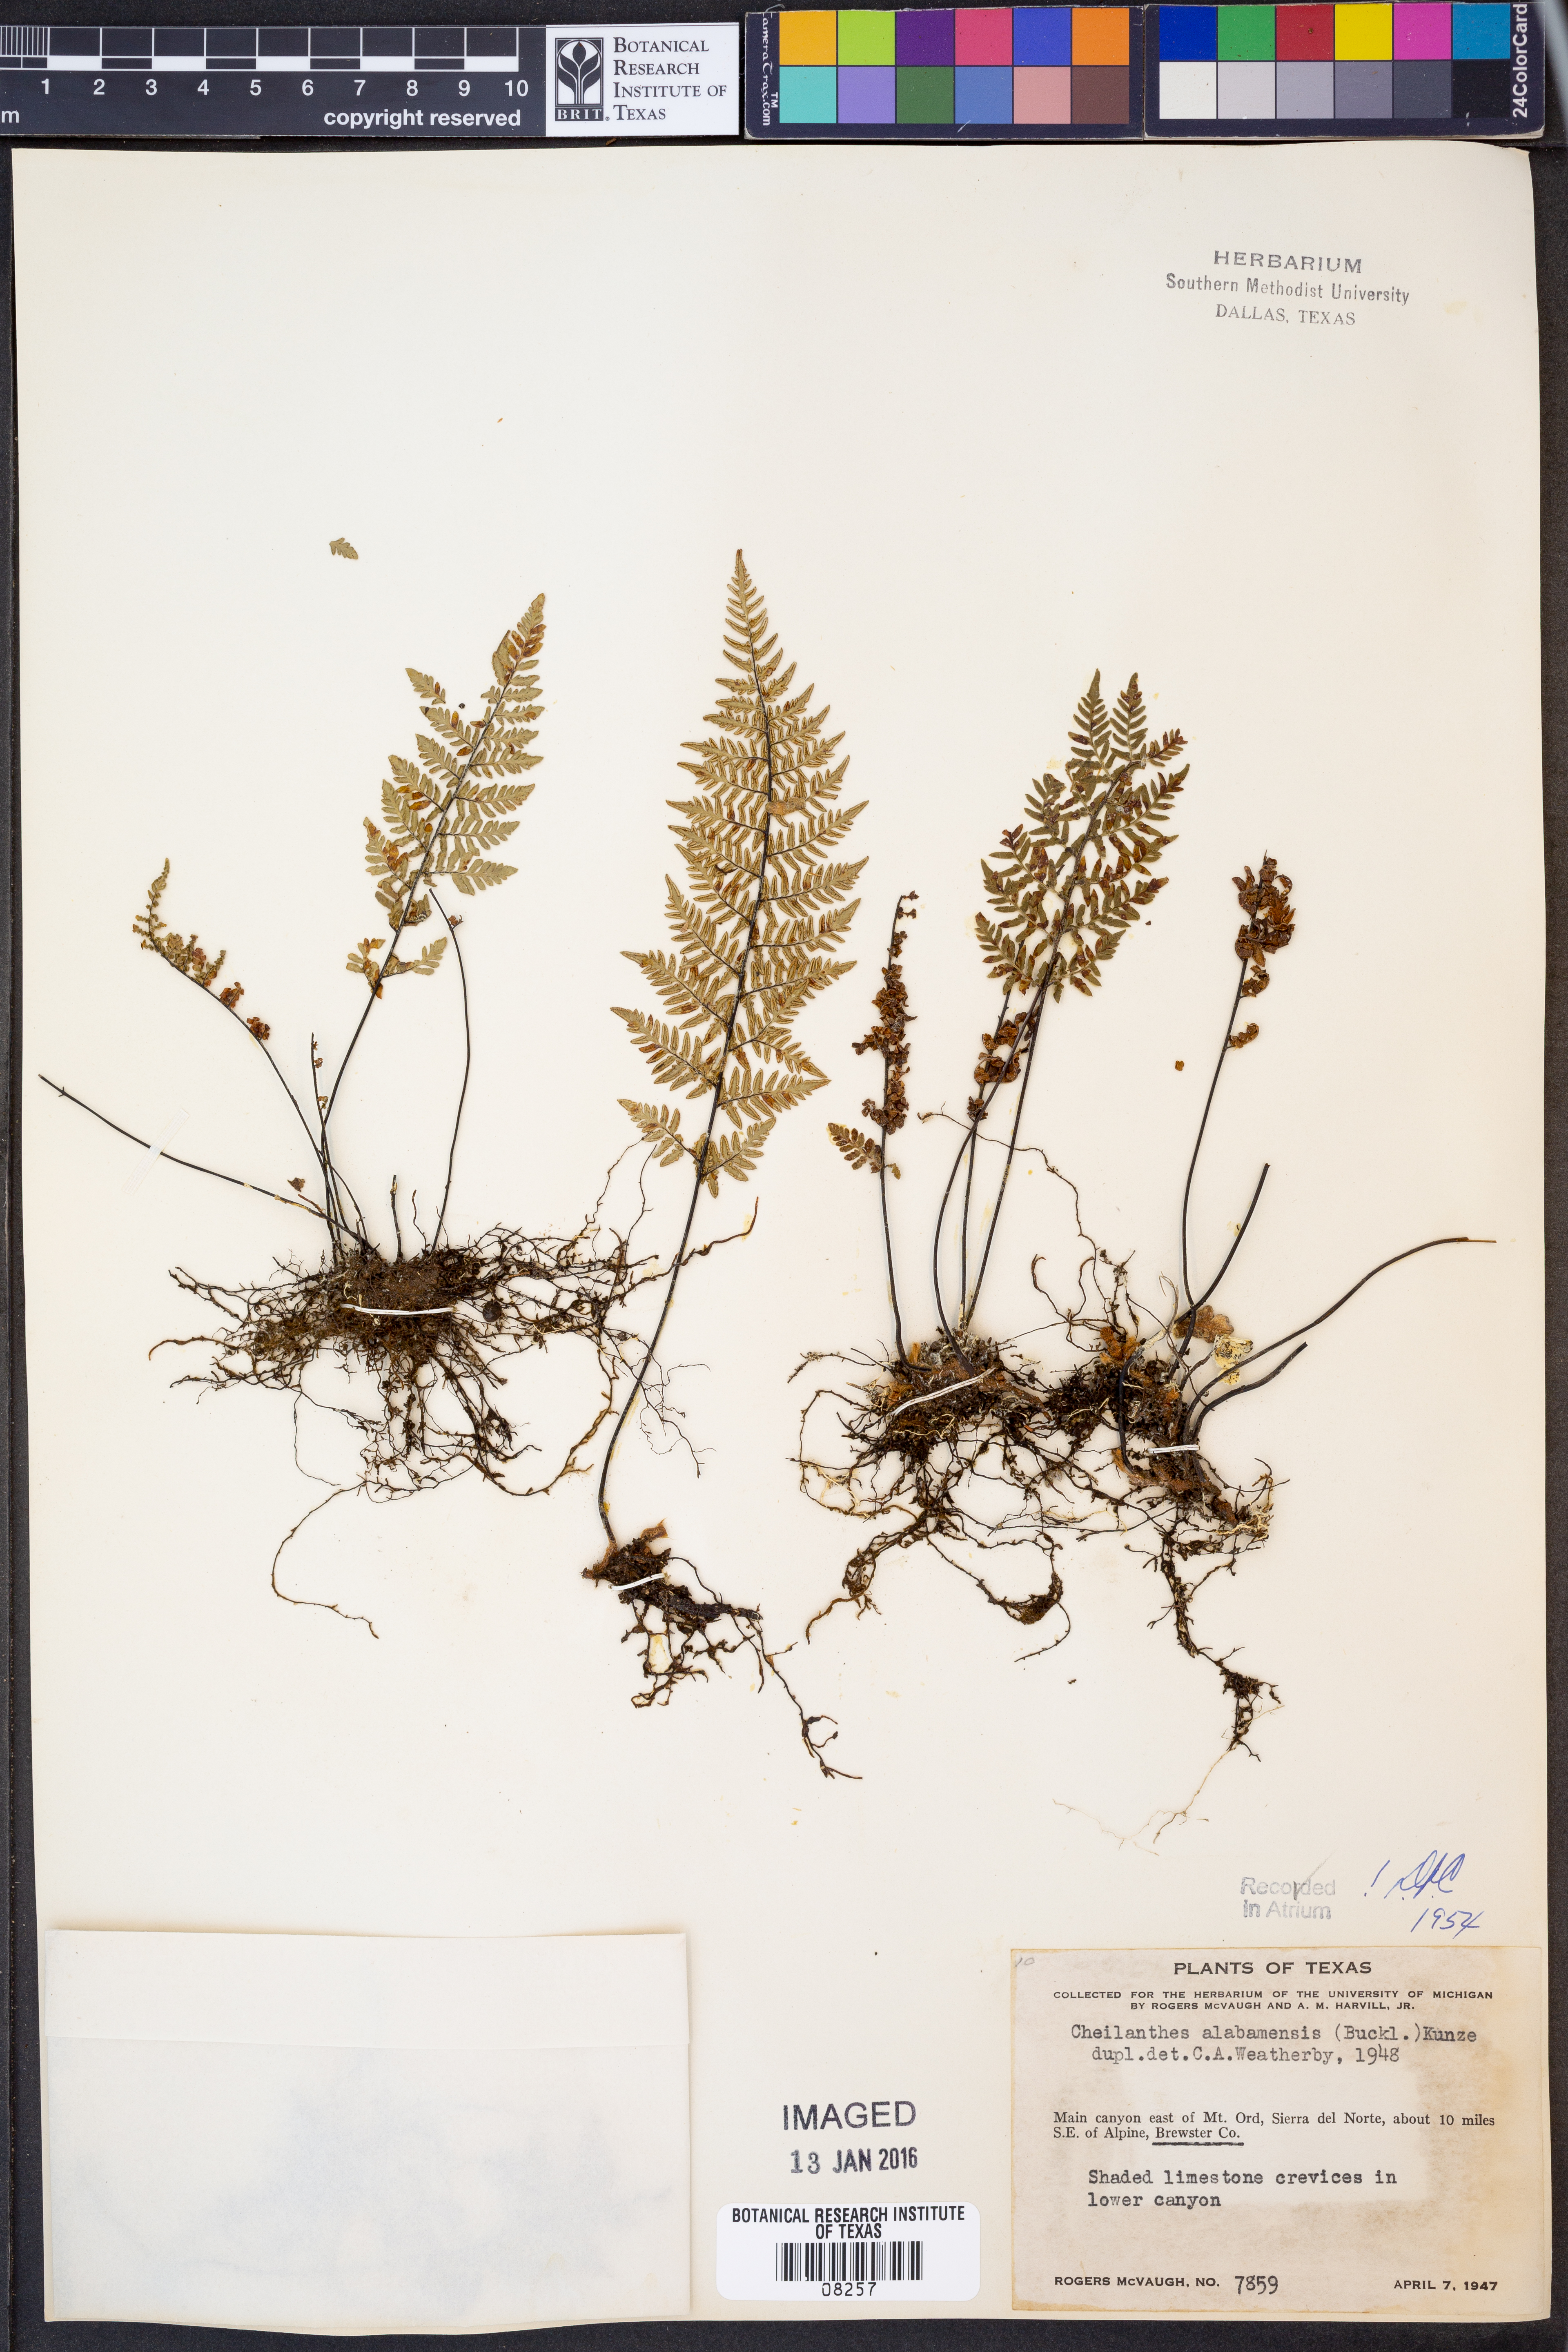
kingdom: Plantae
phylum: Tracheophyta
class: Polypodiopsida
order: Polypodiales
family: Pteridaceae
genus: Myriopteris
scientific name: Myriopteris alabamensis
